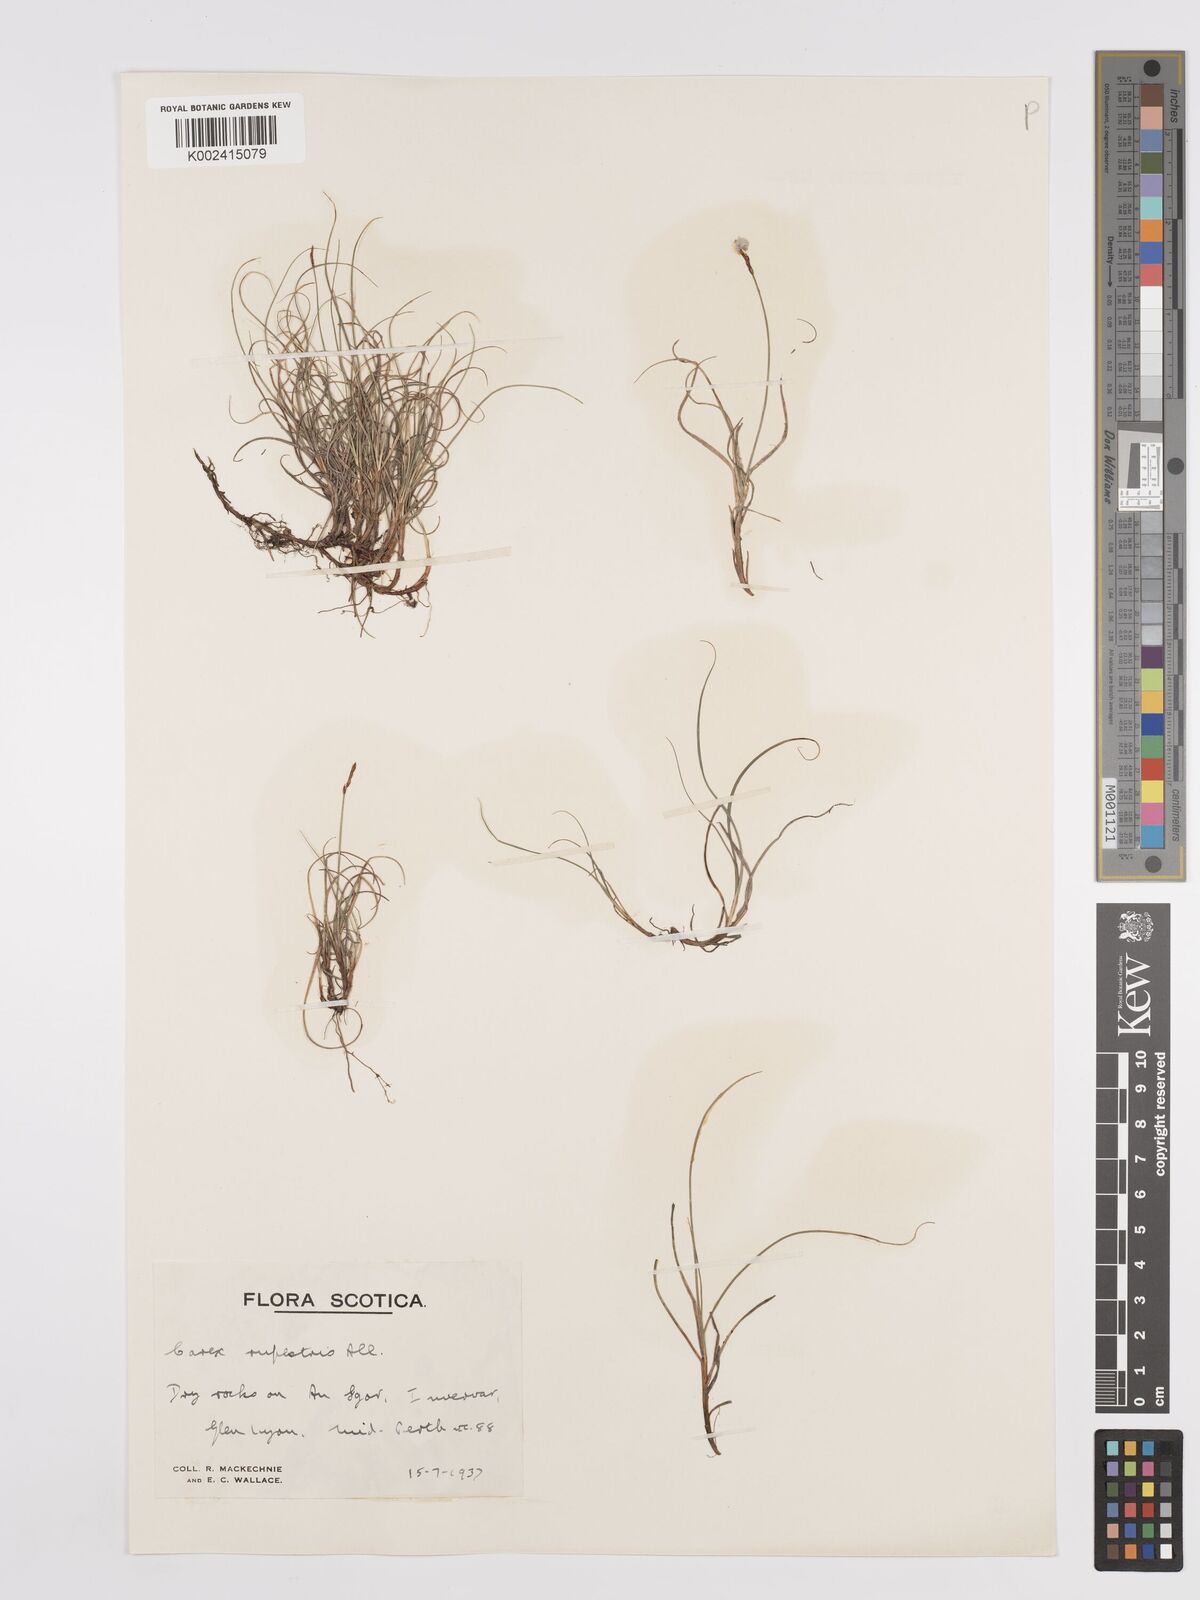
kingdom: Plantae
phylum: Tracheophyta
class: Liliopsida
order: Poales
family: Cyperaceae
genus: Carex
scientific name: Carex rupestris
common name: Rock sedge
